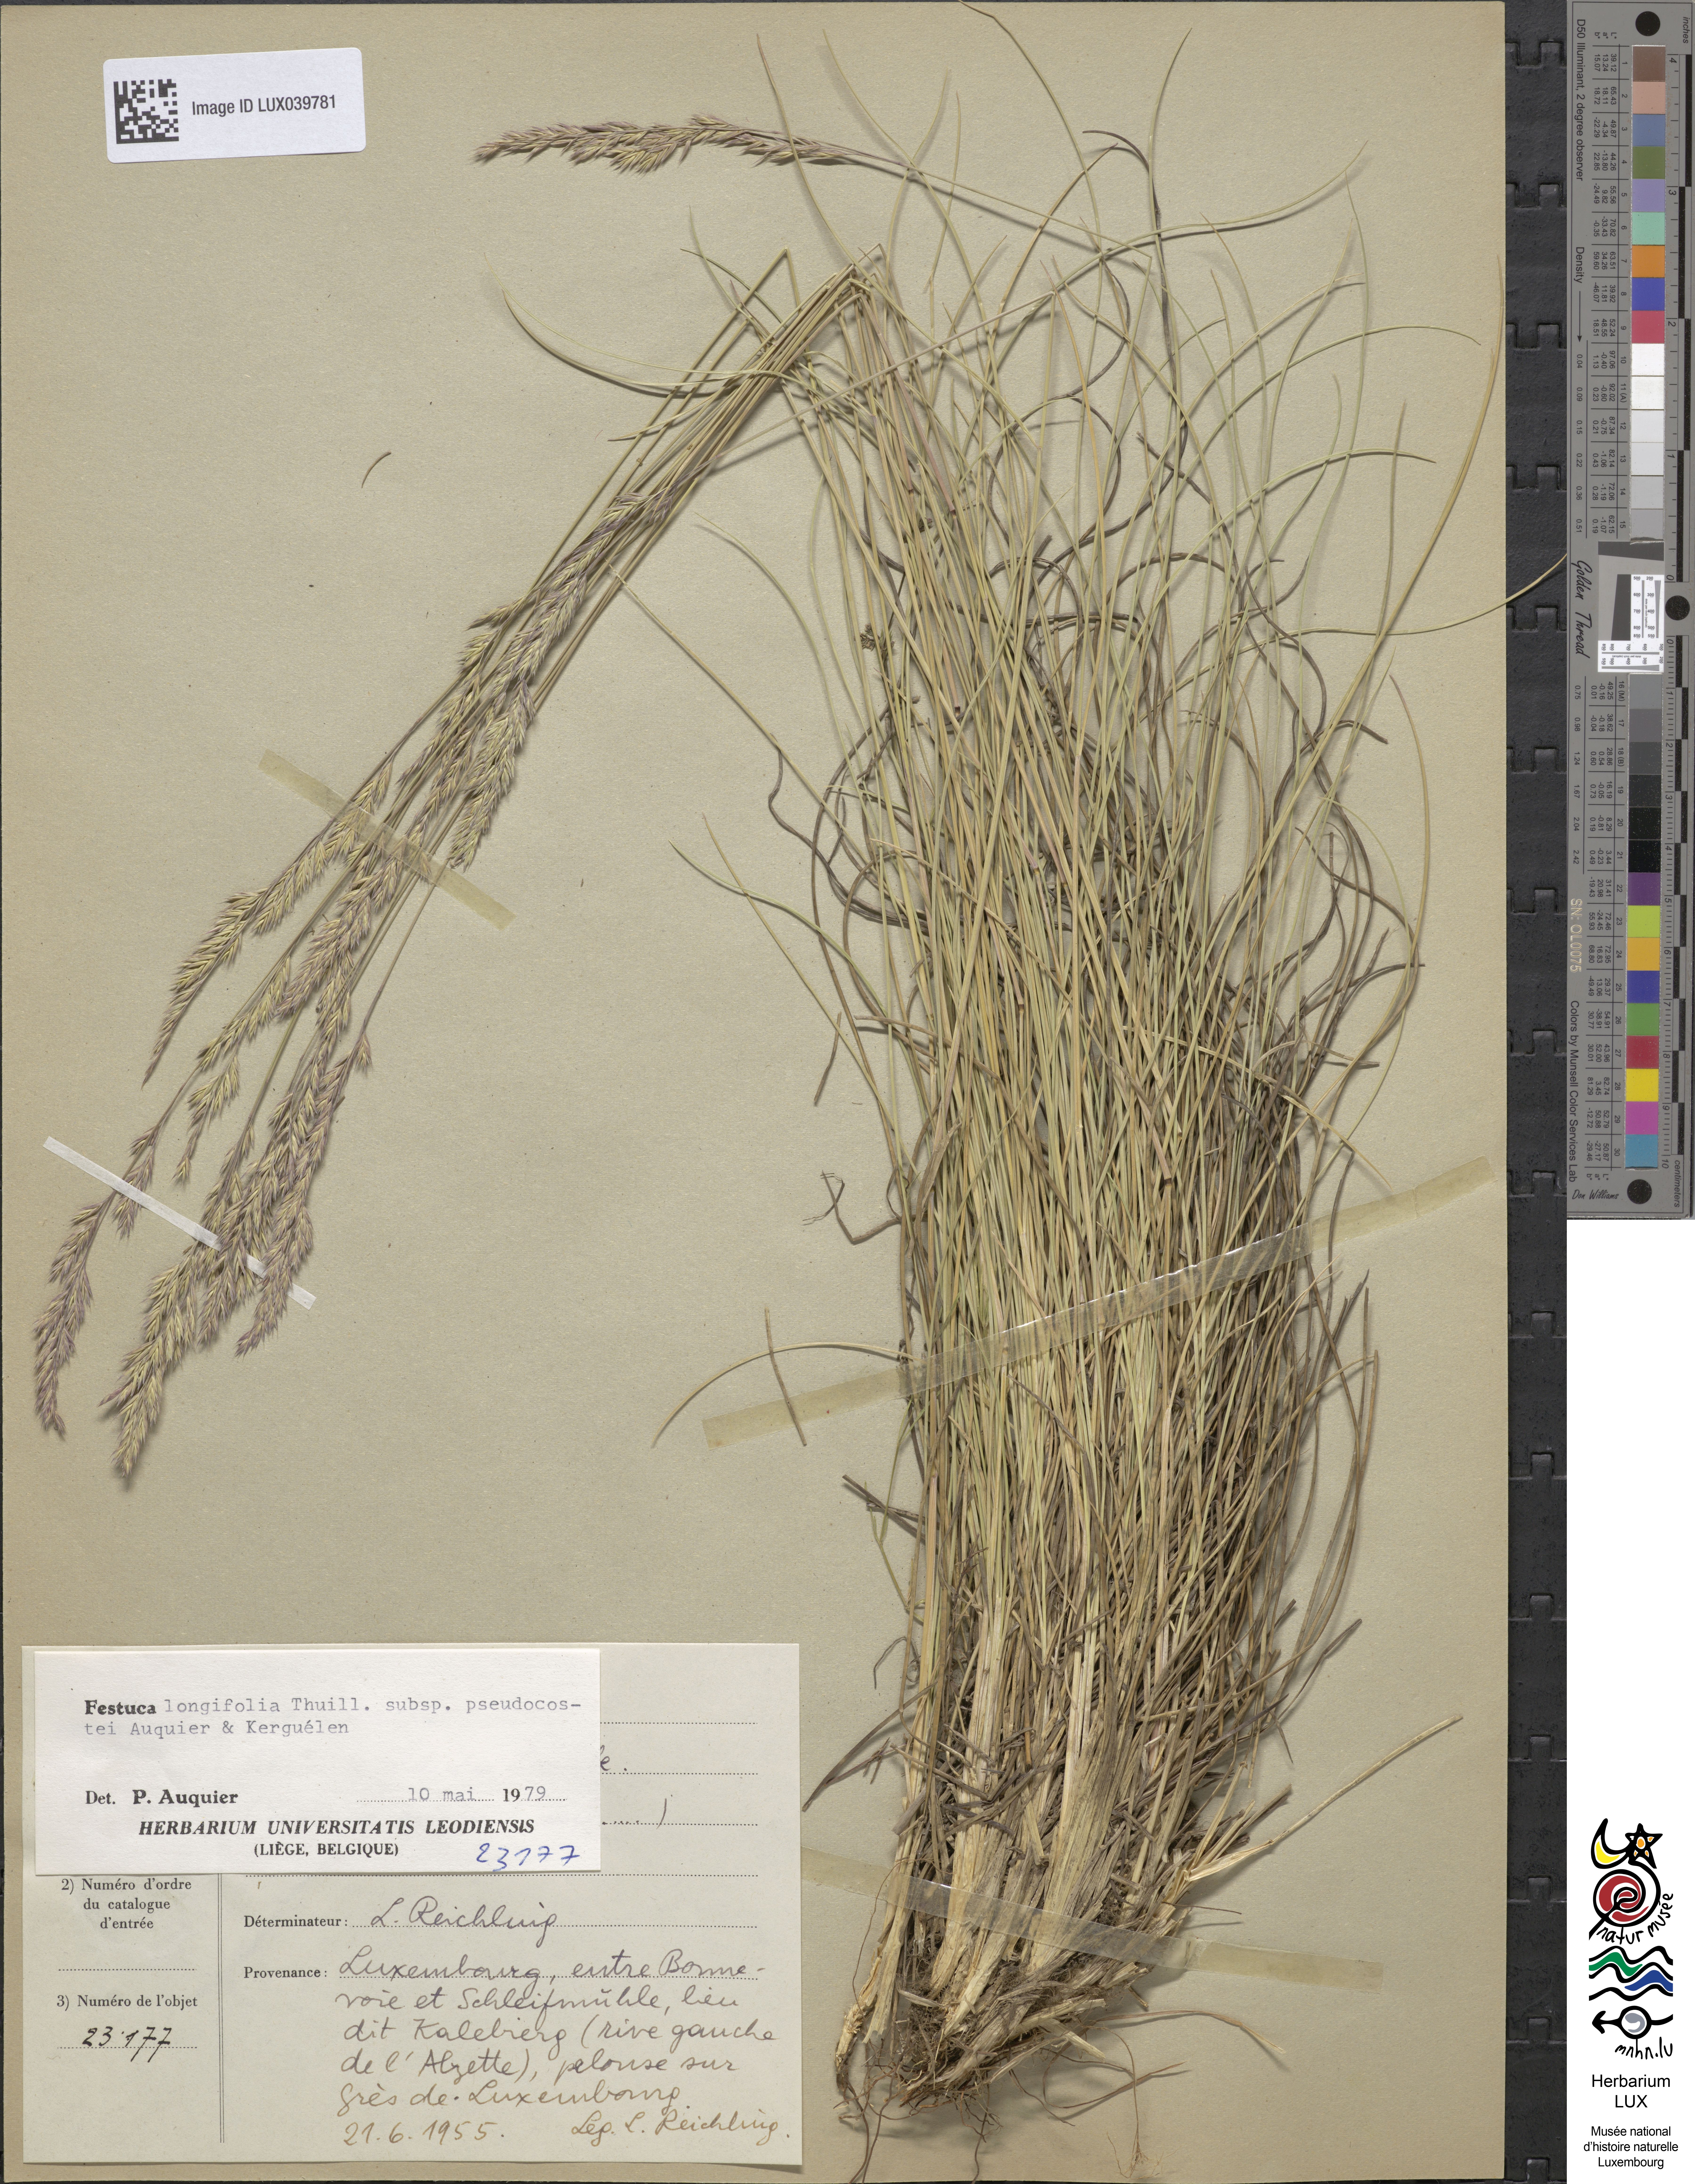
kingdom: Plantae
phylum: Tracheophyta
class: Liliopsida
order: Poales
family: Poaceae
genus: Festuca
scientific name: Festuca arvernensis
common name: Field fescue
